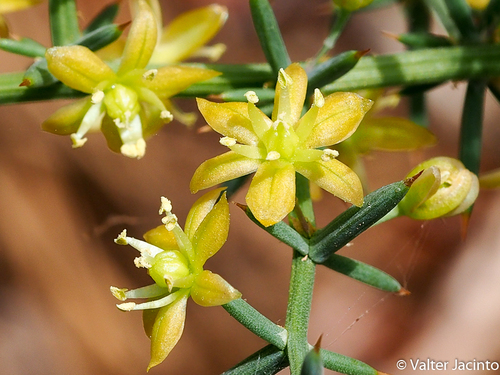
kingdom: Plantae
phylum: Tracheophyta
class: Liliopsida
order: Asparagales
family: Asparagaceae
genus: Asparagus
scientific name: Asparagus aphyllus
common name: Mediterranean asparagus
